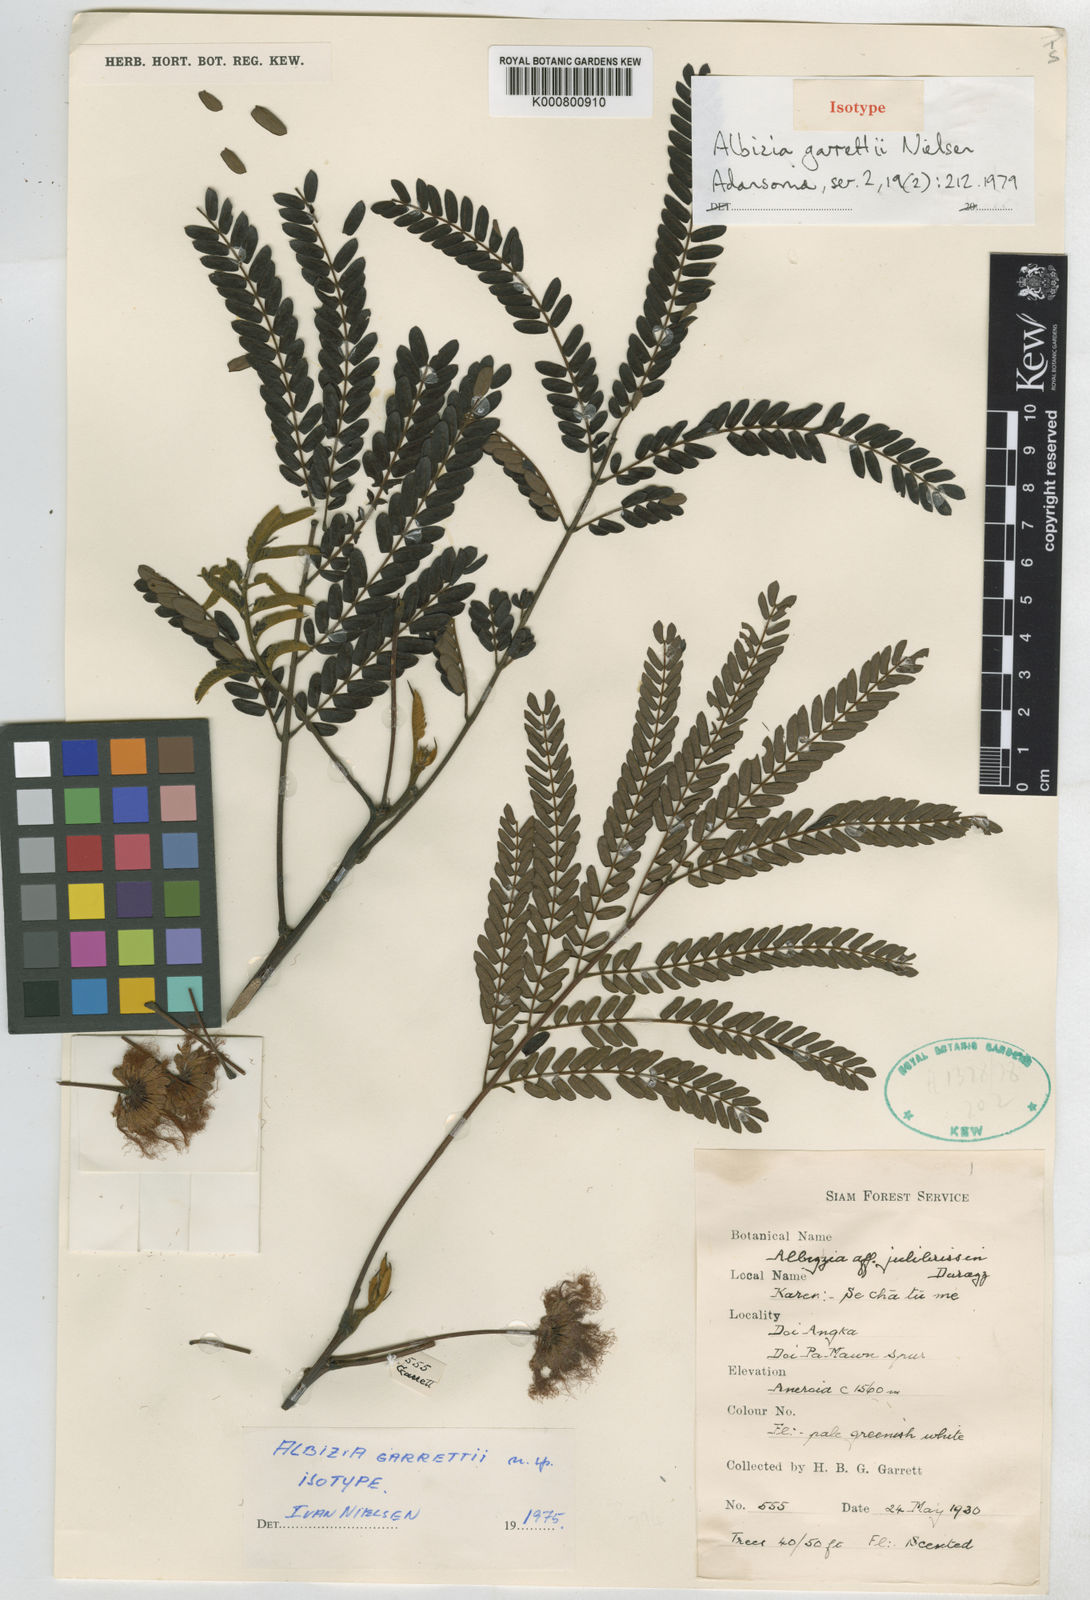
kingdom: Plantae
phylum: Tracheophyta
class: Magnoliopsida
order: Fabales
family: Fabaceae
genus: Albizia
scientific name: Albizia garrettii
